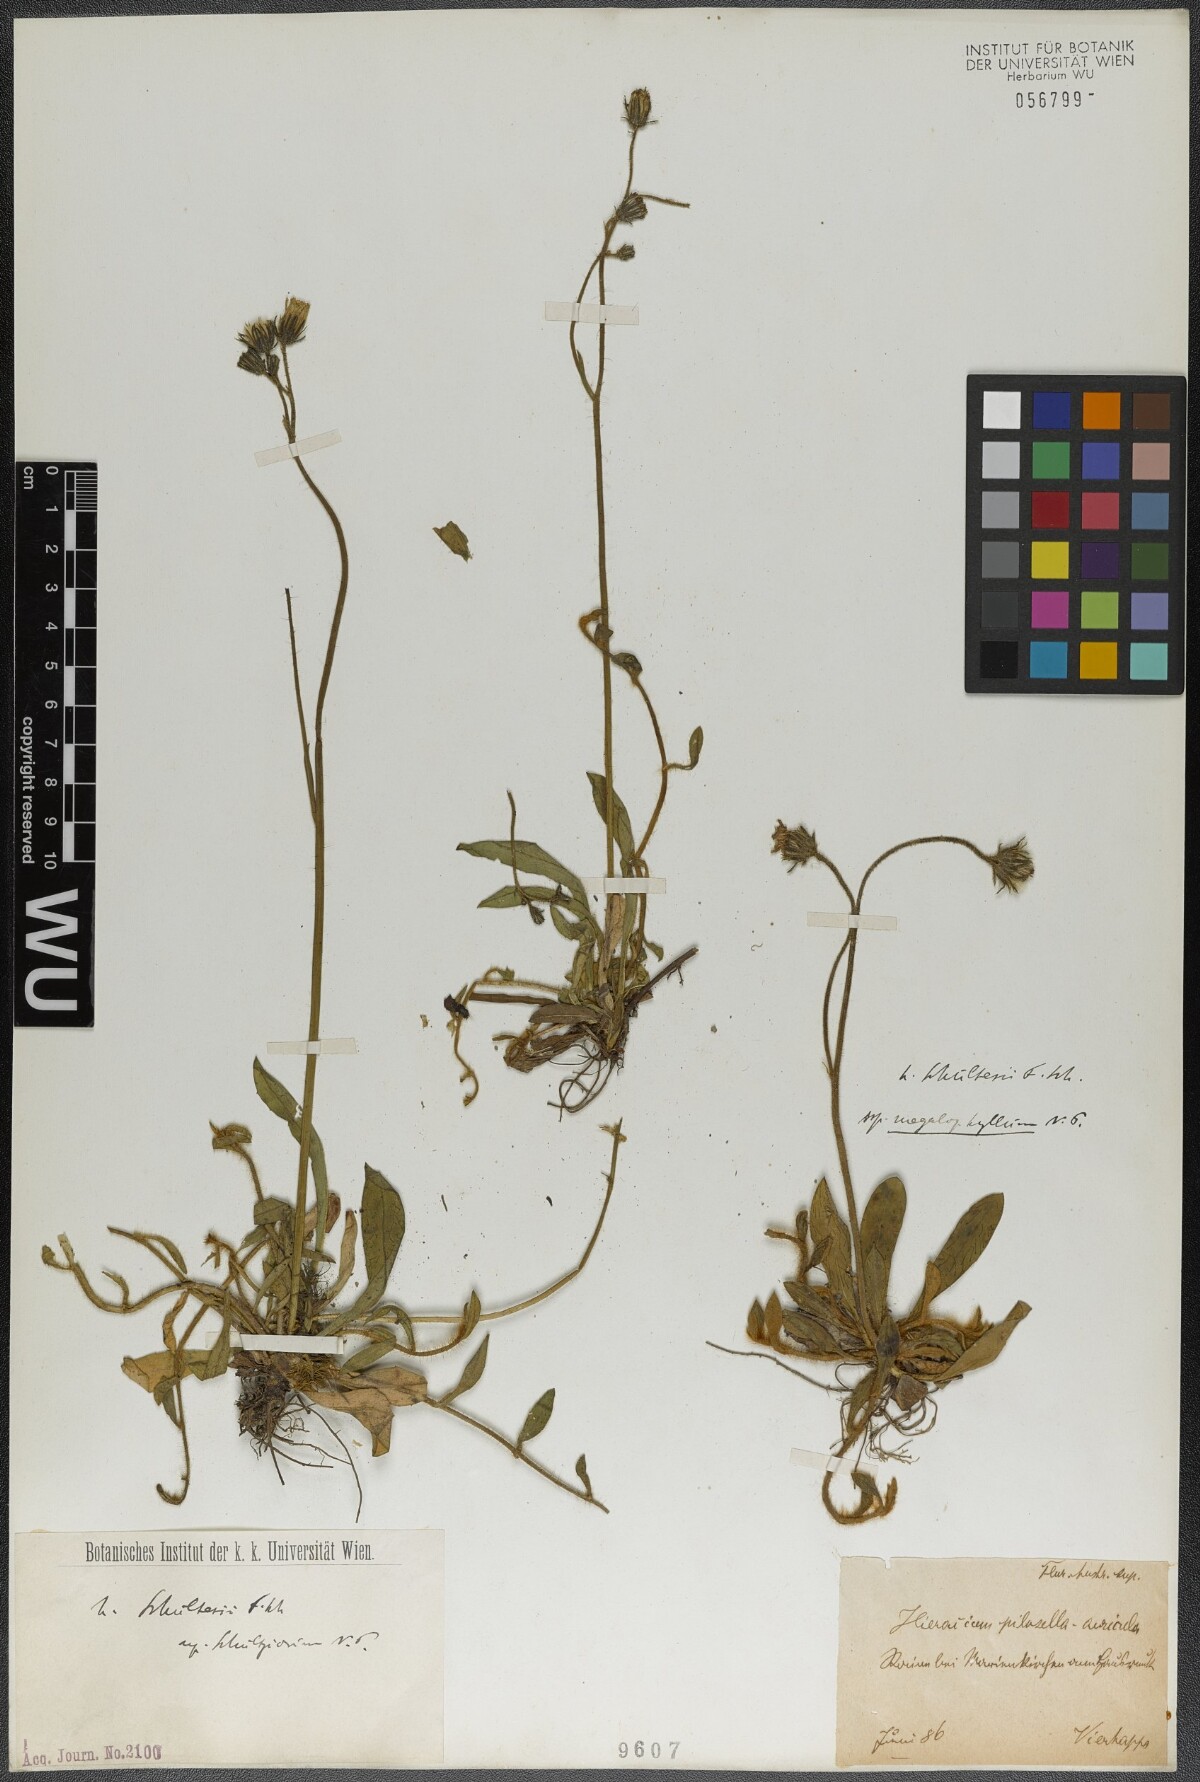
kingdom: Plantae
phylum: Tracheophyta
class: Magnoliopsida
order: Asterales
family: Asteraceae
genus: Pilosella
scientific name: Pilosella schultesii
